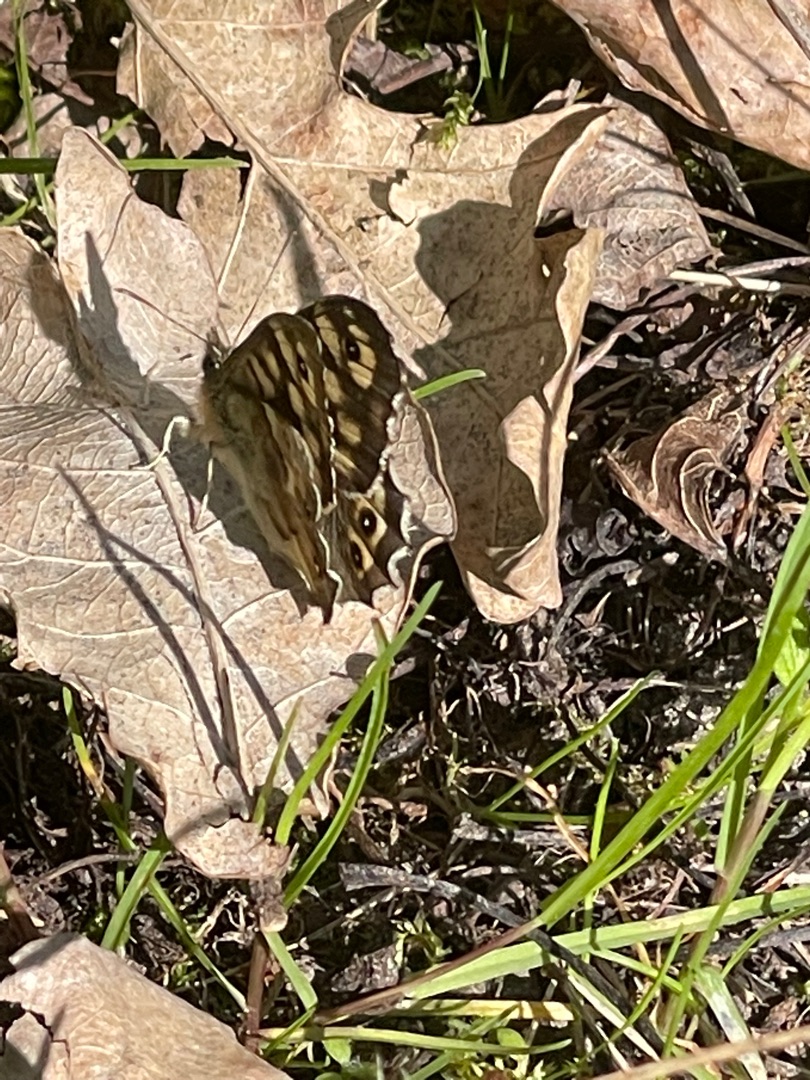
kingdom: Animalia
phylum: Arthropoda
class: Insecta
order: Lepidoptera
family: Nymphalidae
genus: Pararge
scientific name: Pararge aegeria
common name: Skovrandøje
